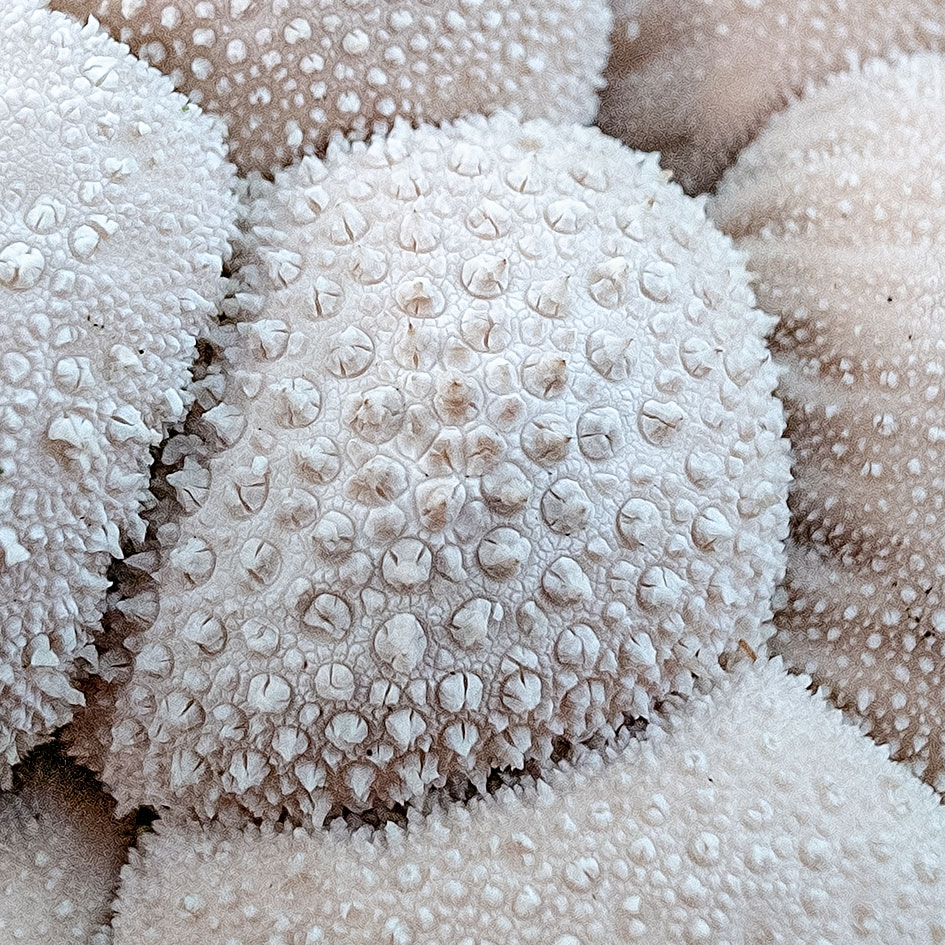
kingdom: Fungi
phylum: Basidiomycota
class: Agaricomycetes
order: Agaricales
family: Lycoperdaceae
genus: Lycoperdon
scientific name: Lycoperdon perlatum
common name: krystal-støvbold
